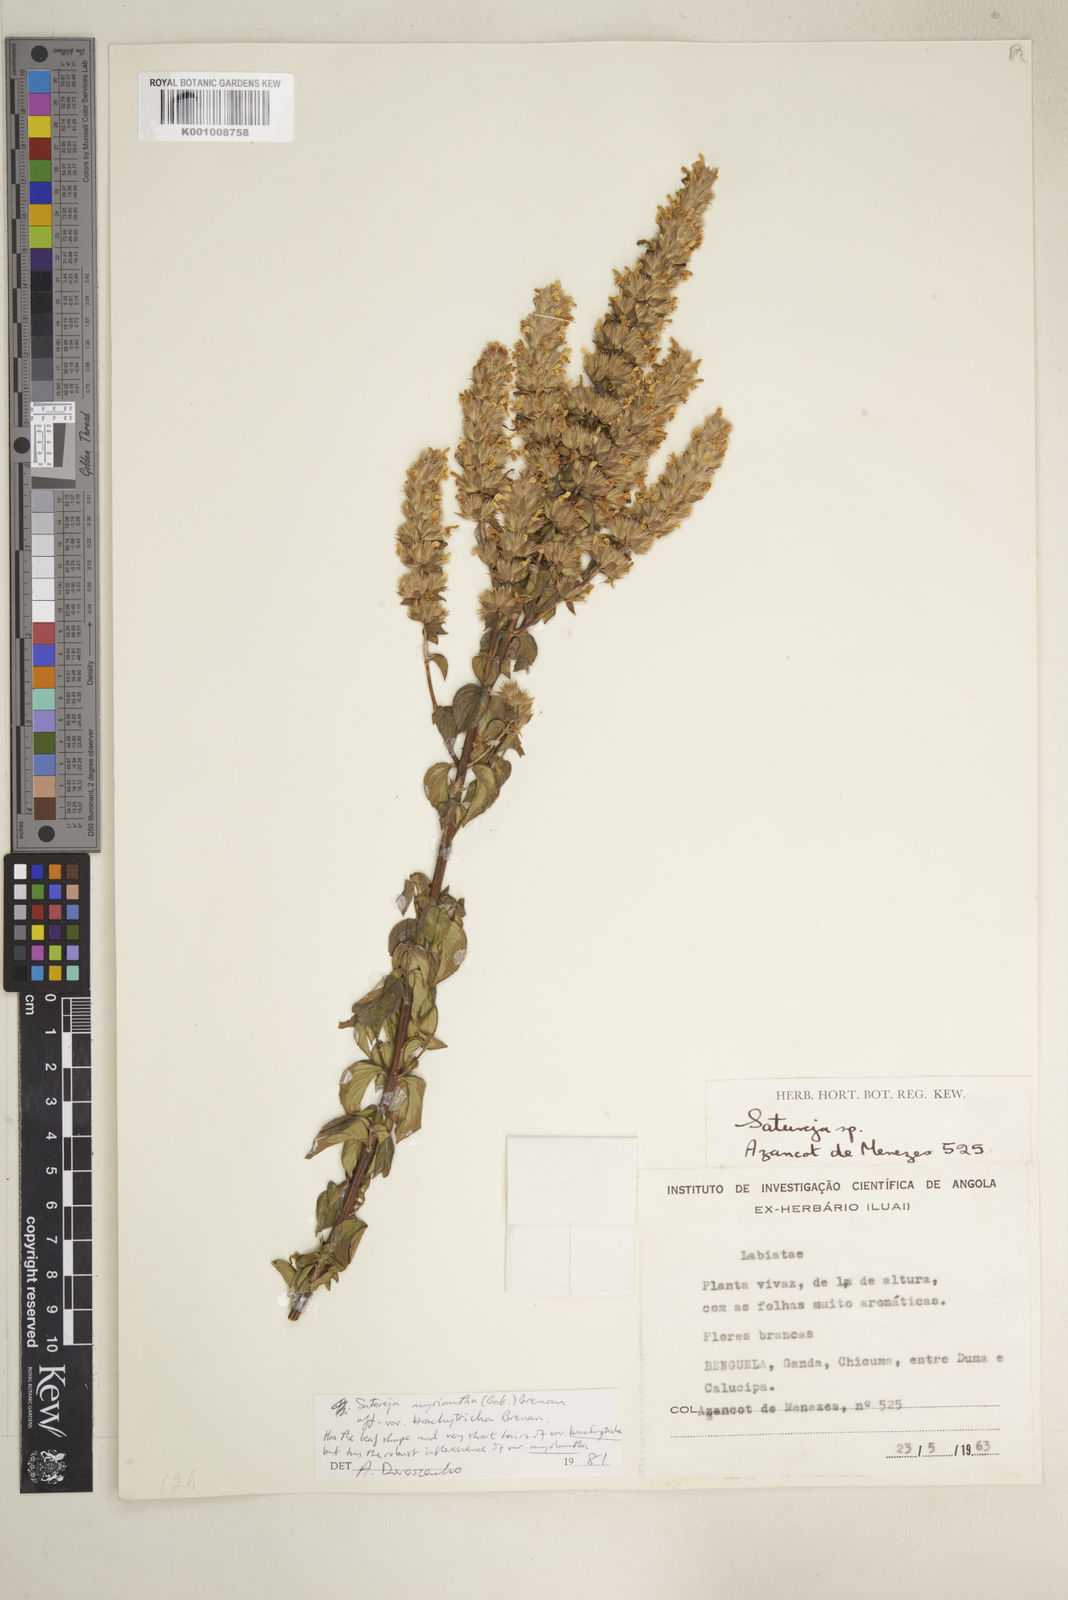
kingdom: Plantae
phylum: Tracheophyta
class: Magnoliopsida
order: Lamiales
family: Lamiaceae
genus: Clinopodium
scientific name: Clinopodium myrianthum
